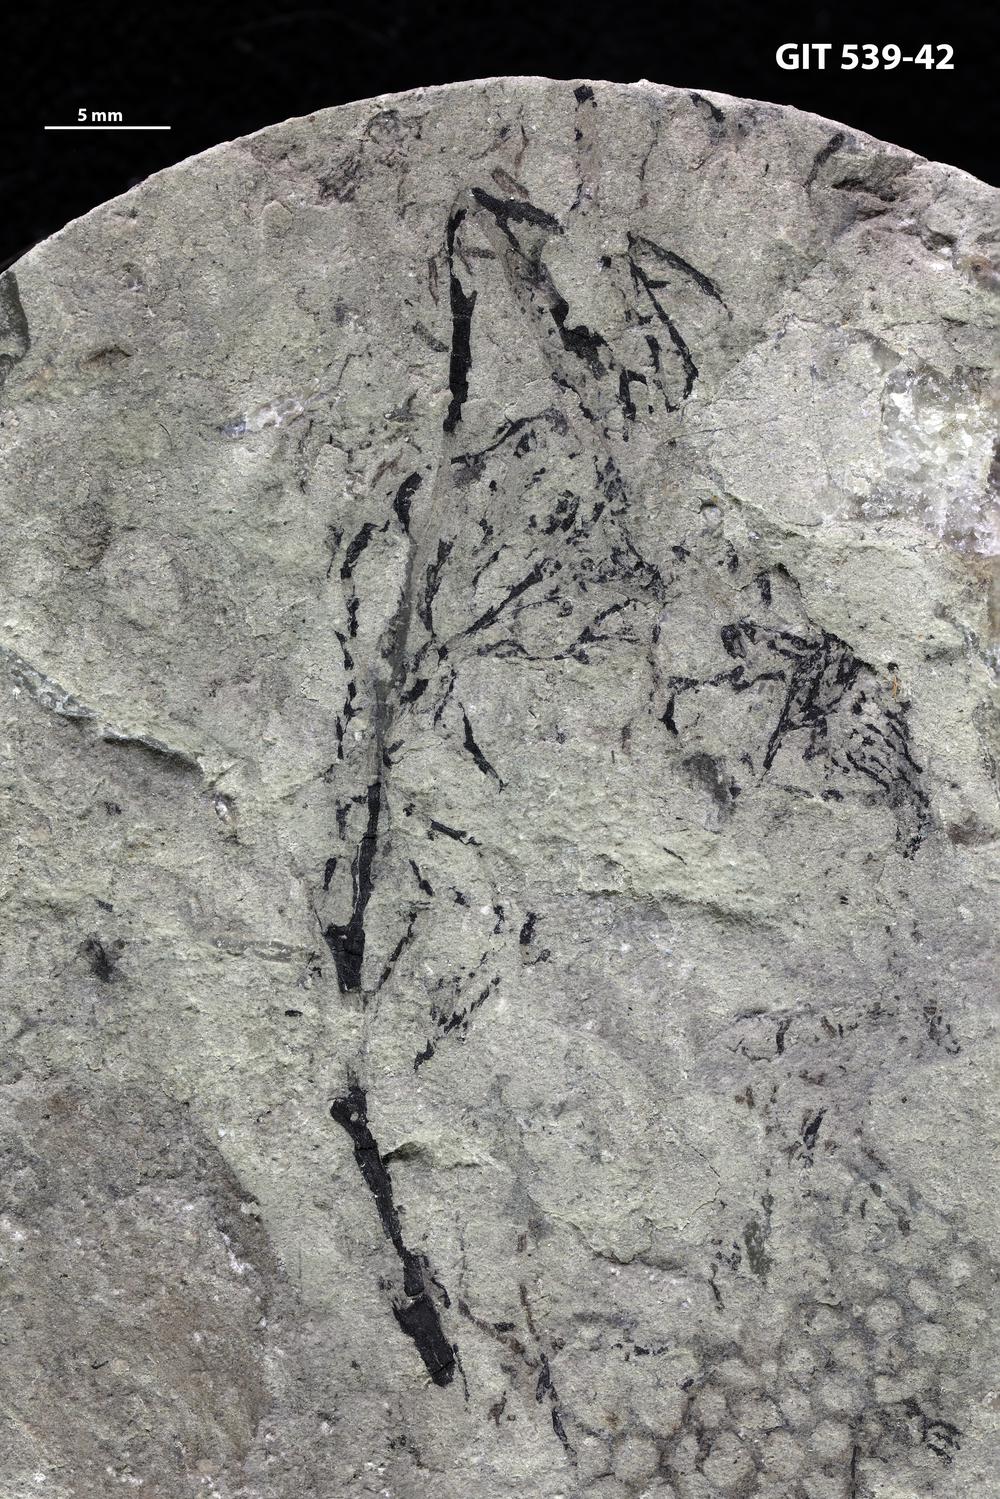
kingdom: Animalia
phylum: Hemichordata
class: Pterobranchia
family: Dendrograptidae
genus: Dendrograptus
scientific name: Dendrograptus
